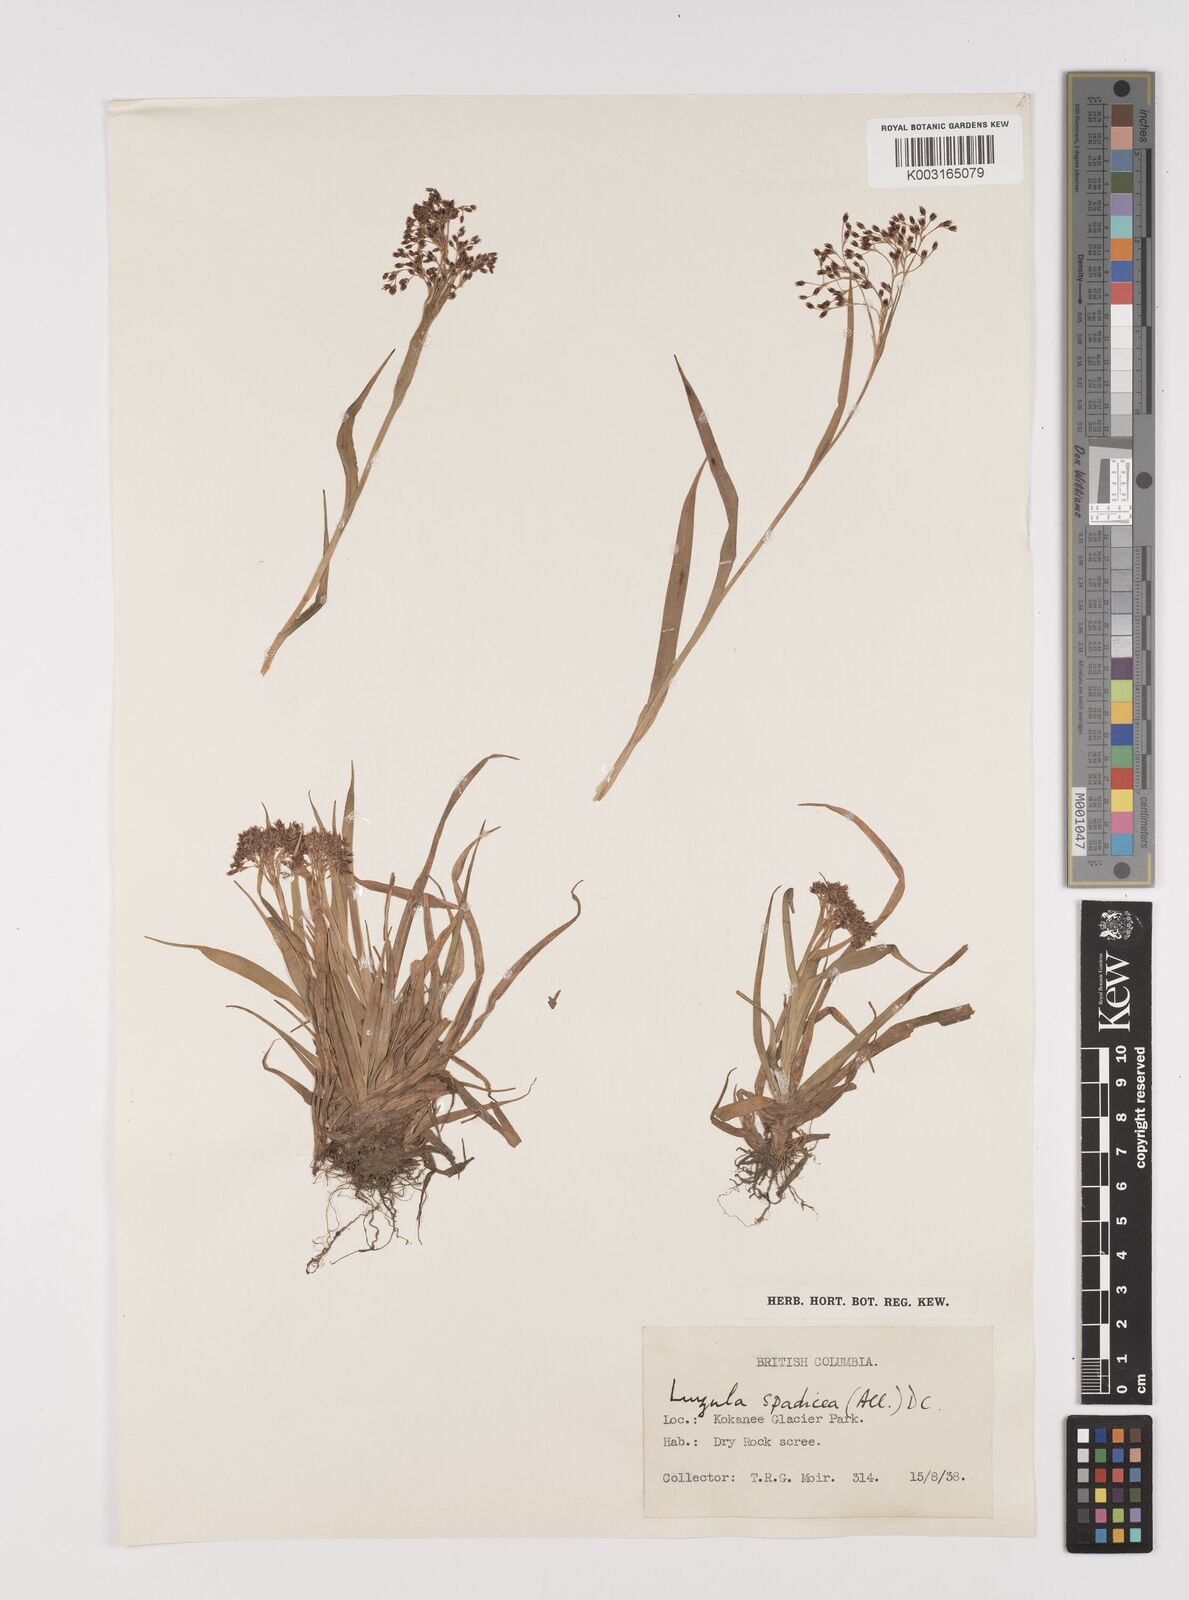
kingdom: Plantae
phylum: Tracheophyta
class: Liliopsida
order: Poales
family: Juncaceae
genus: Luzula
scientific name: Luzula alpinopilosa
